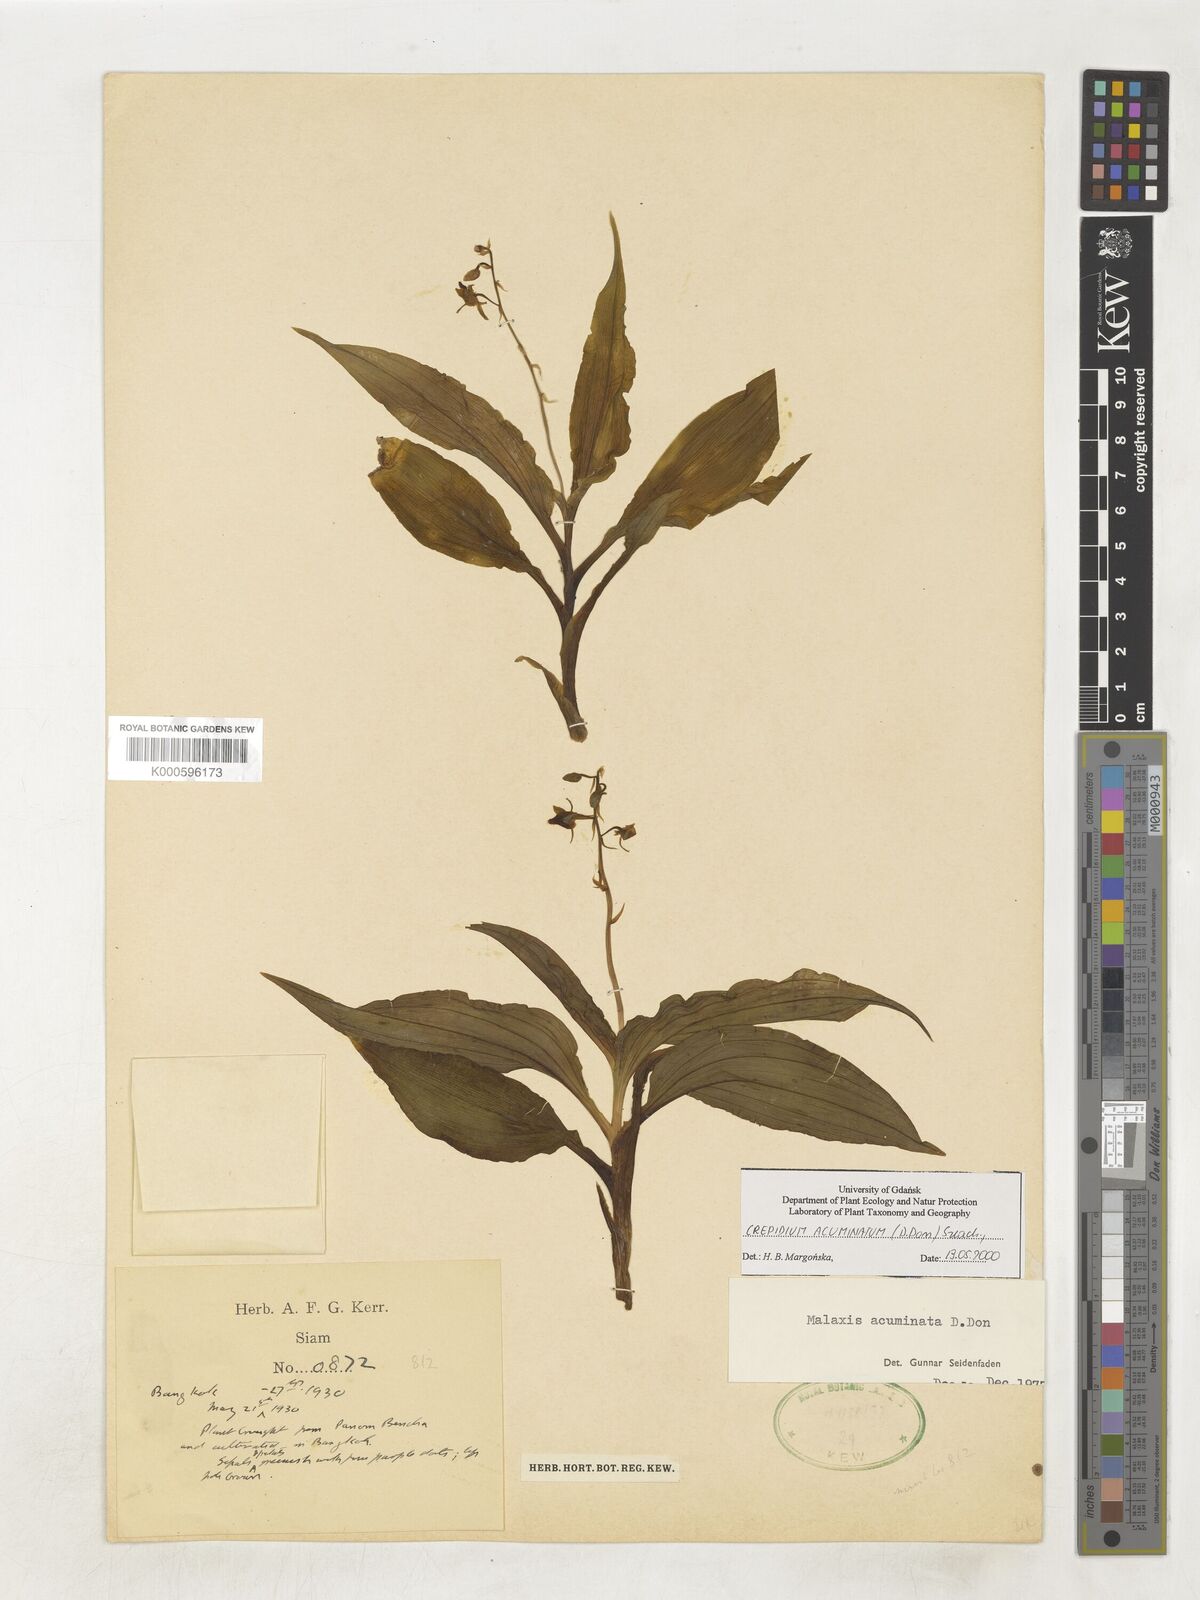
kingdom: Plantae
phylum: Tracheophyta
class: Liliopsida
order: Asparagales
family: Orchidaceae
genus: Crepidium
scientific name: Crepidium acuminatum
